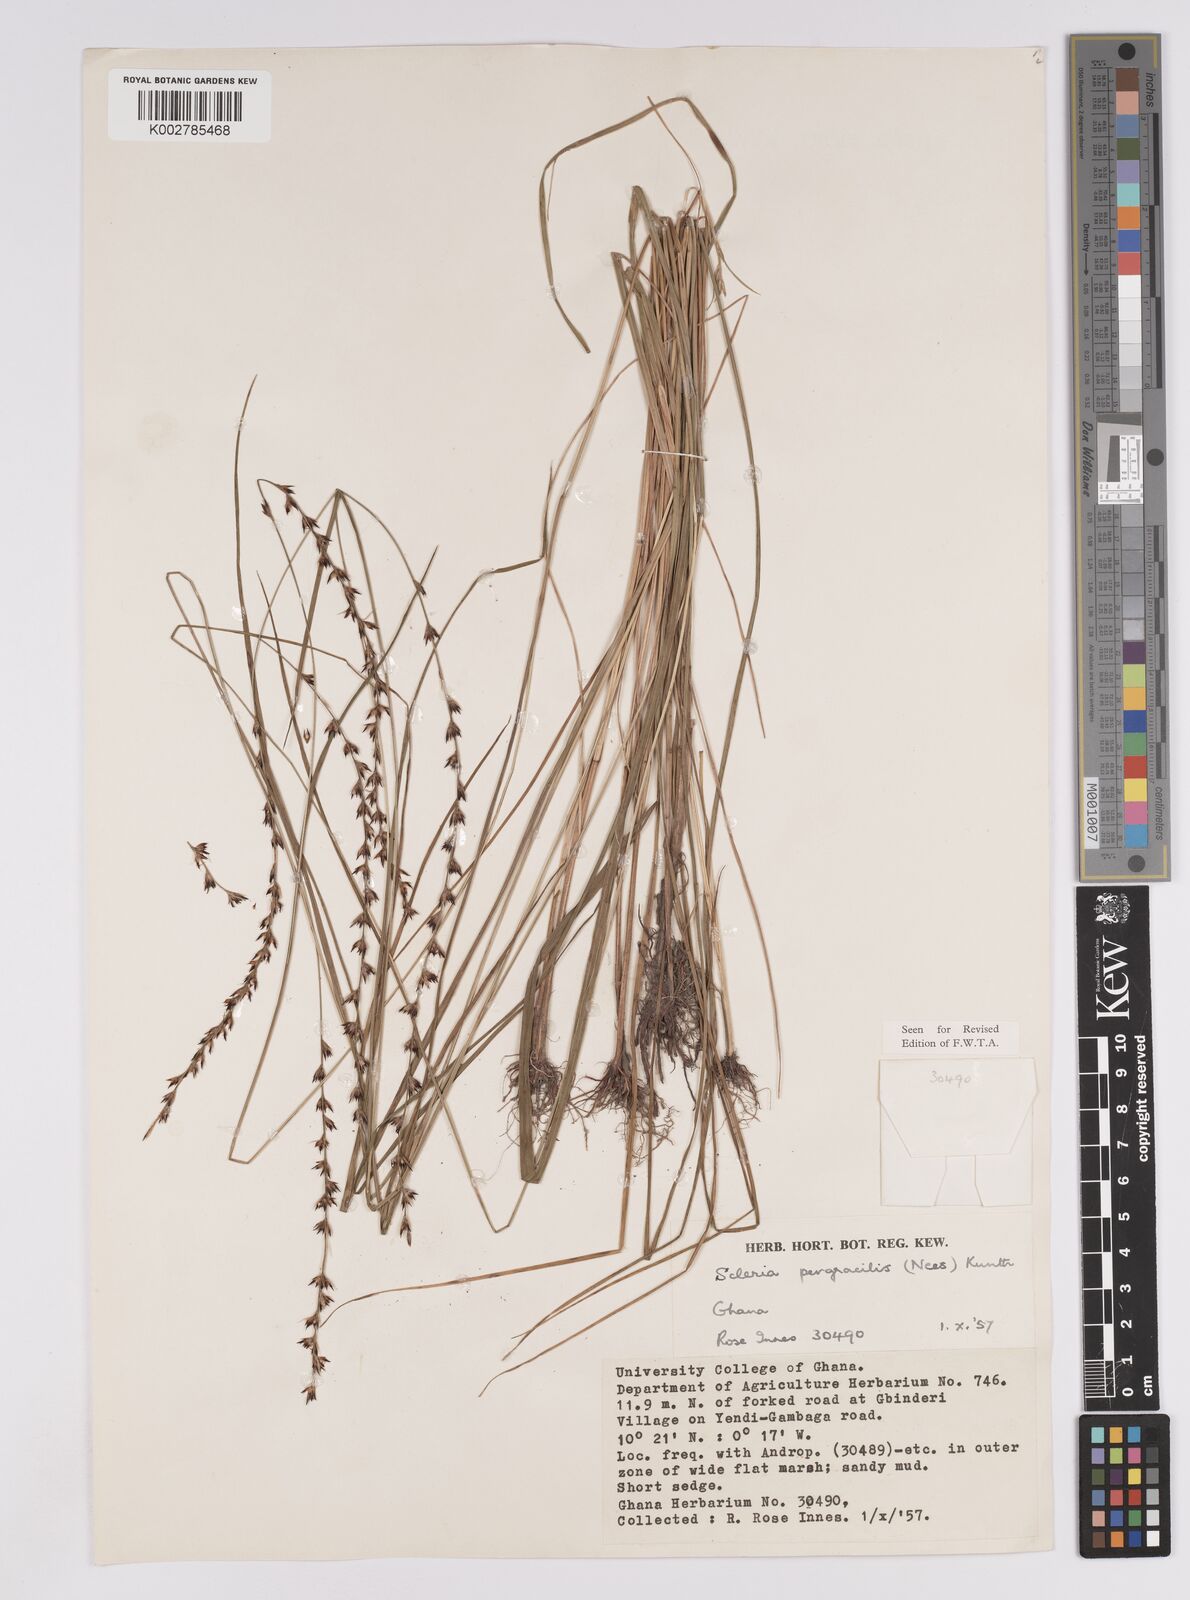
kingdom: Plantae
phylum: Tracheophyta
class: Liliopsida
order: Poales
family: Cyperaceae
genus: Scleria
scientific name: Scleria pergracilis
